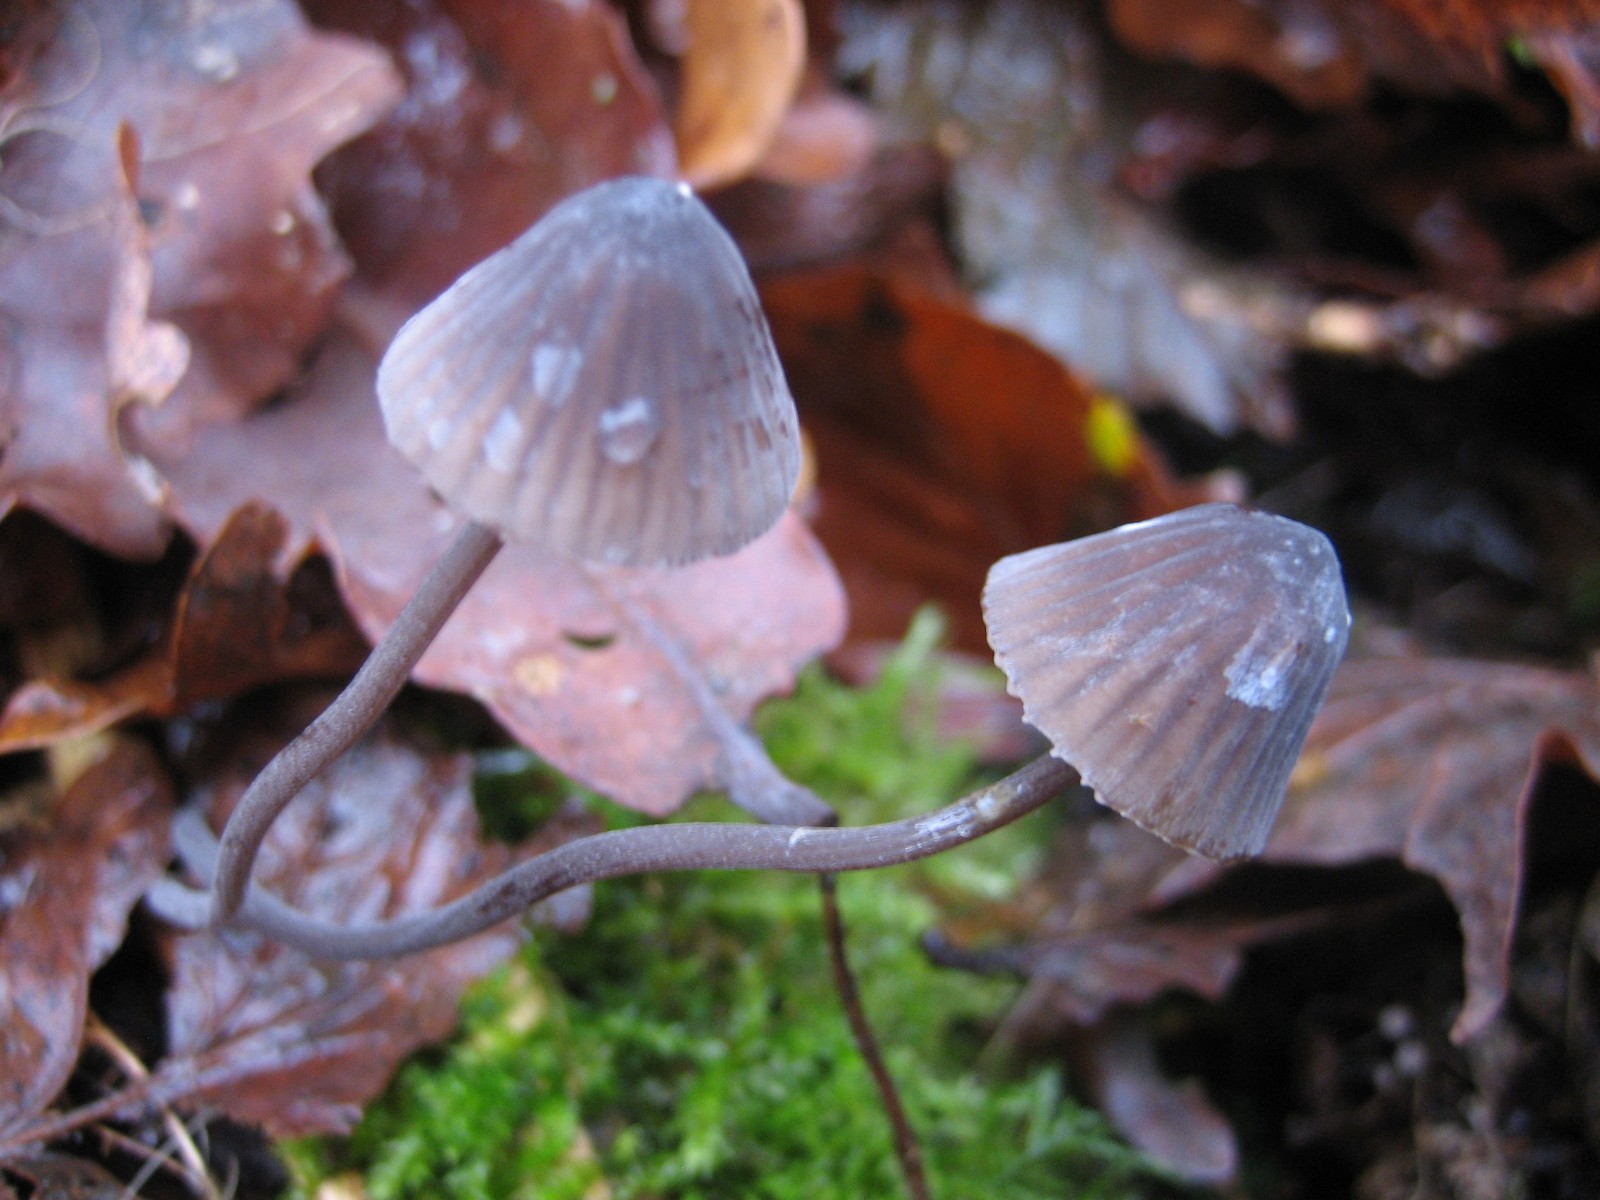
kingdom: Fungi
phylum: Basidiomycota
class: Agaricomycetes
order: Agaricales
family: Mycenaceae
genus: Mycena
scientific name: Mycena
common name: huesvamp
